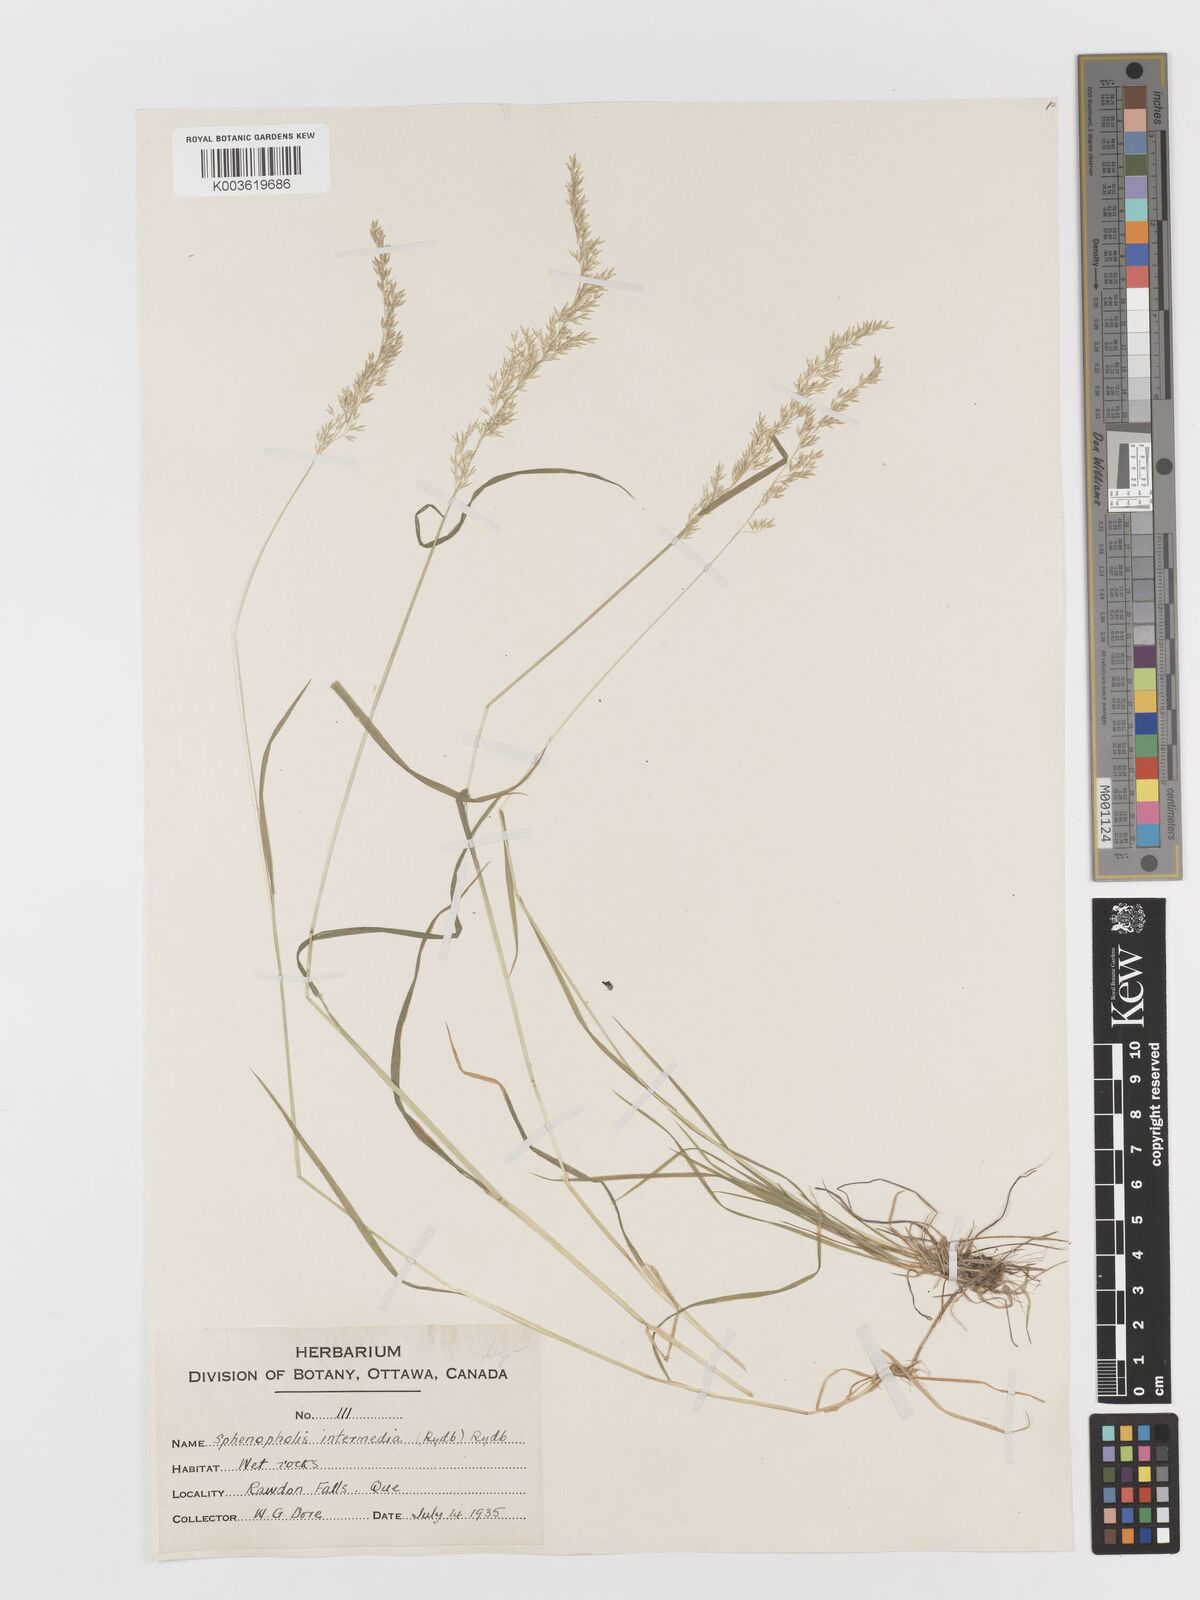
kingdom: Plantae
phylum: Tracheophyta
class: Liliopsida
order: Poales
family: Poaceae
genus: Sphenopholis
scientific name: Sphenopholis obtusata
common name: Prairie grass
